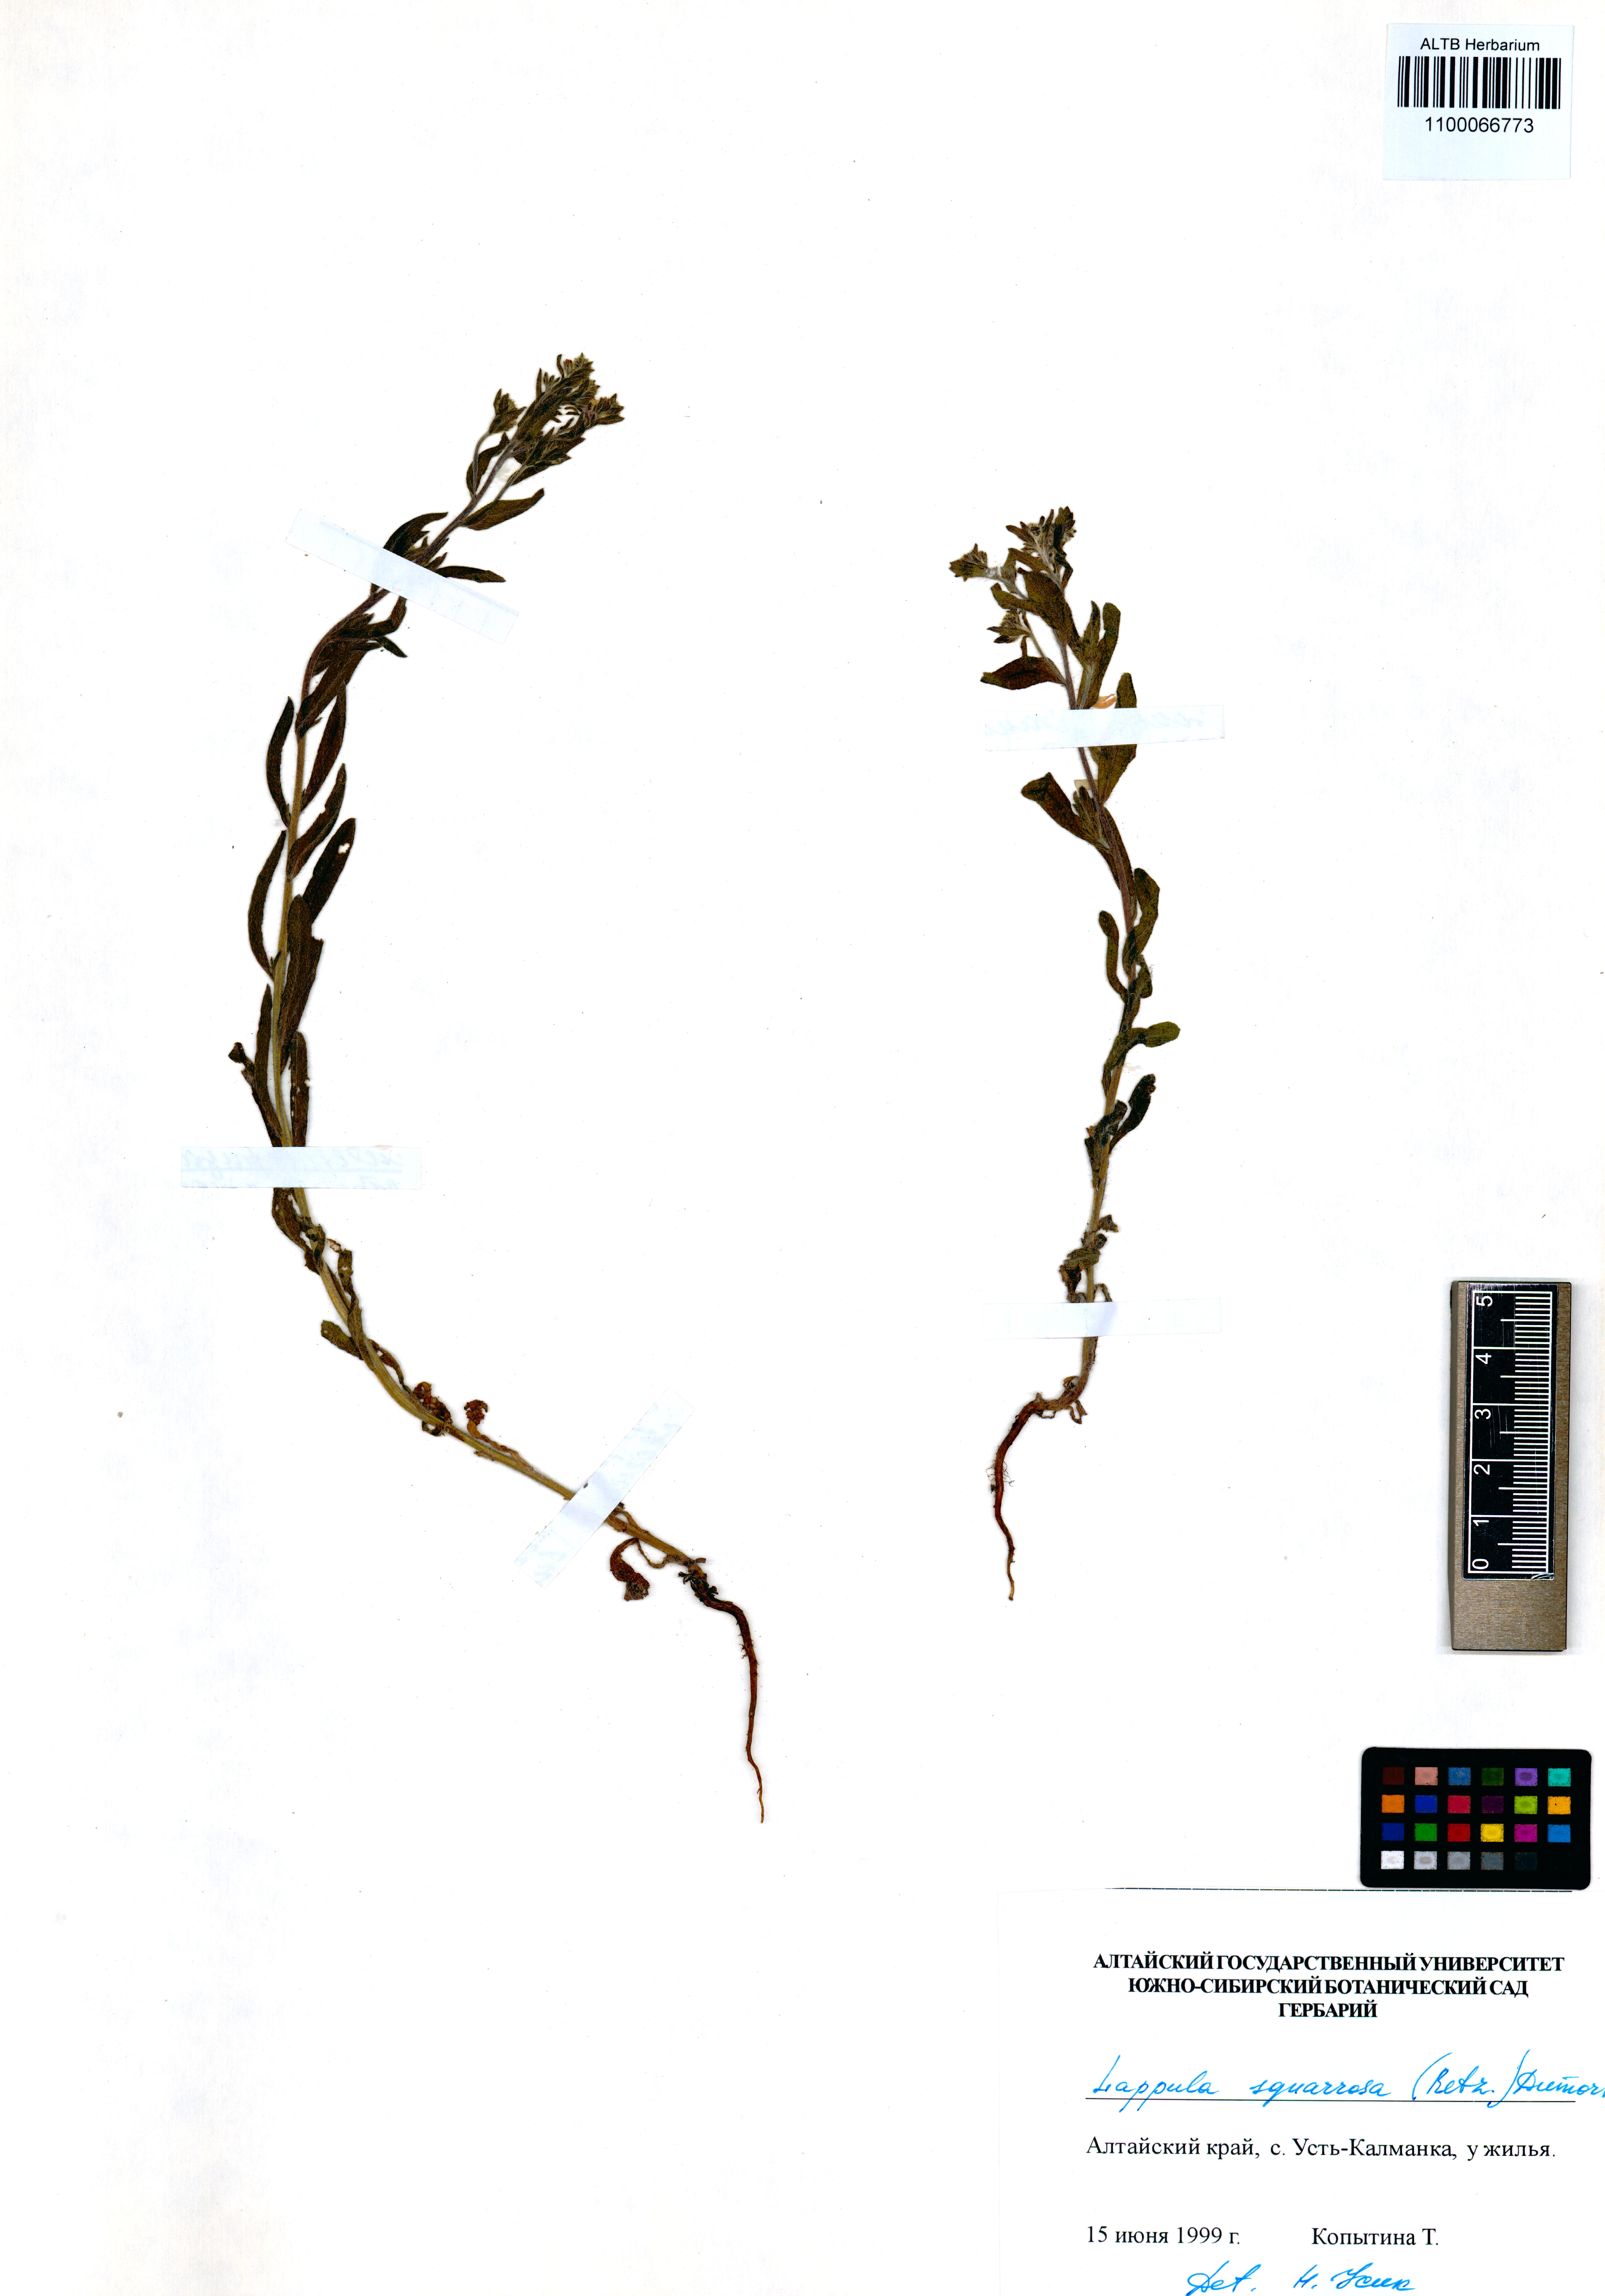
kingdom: Plantae
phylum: Tracheophyta
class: Magnoliopsida
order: Boraginales
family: Boraginaceae
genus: Lappula
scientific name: Lappula squarrosa
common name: European stickseed
